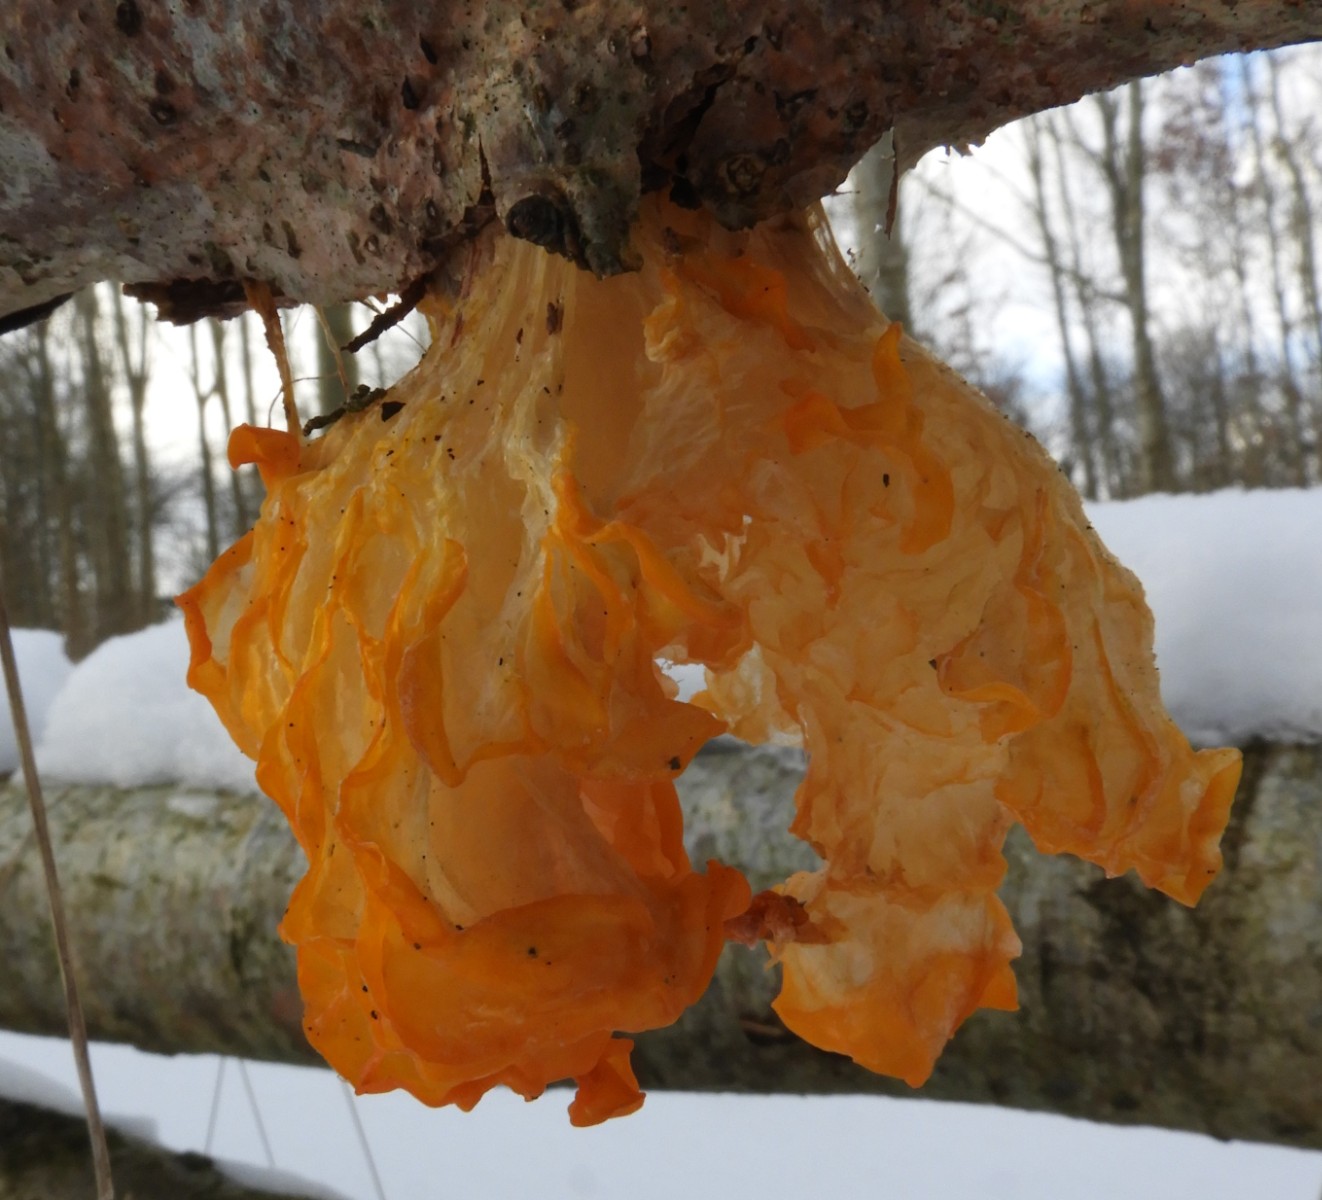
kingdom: Fungi
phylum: Basidiomycota
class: Tremellomycetes
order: Tremellales
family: Tremellaceae
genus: Tremella
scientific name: Tremella mesenterica
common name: gul bævresvamp
